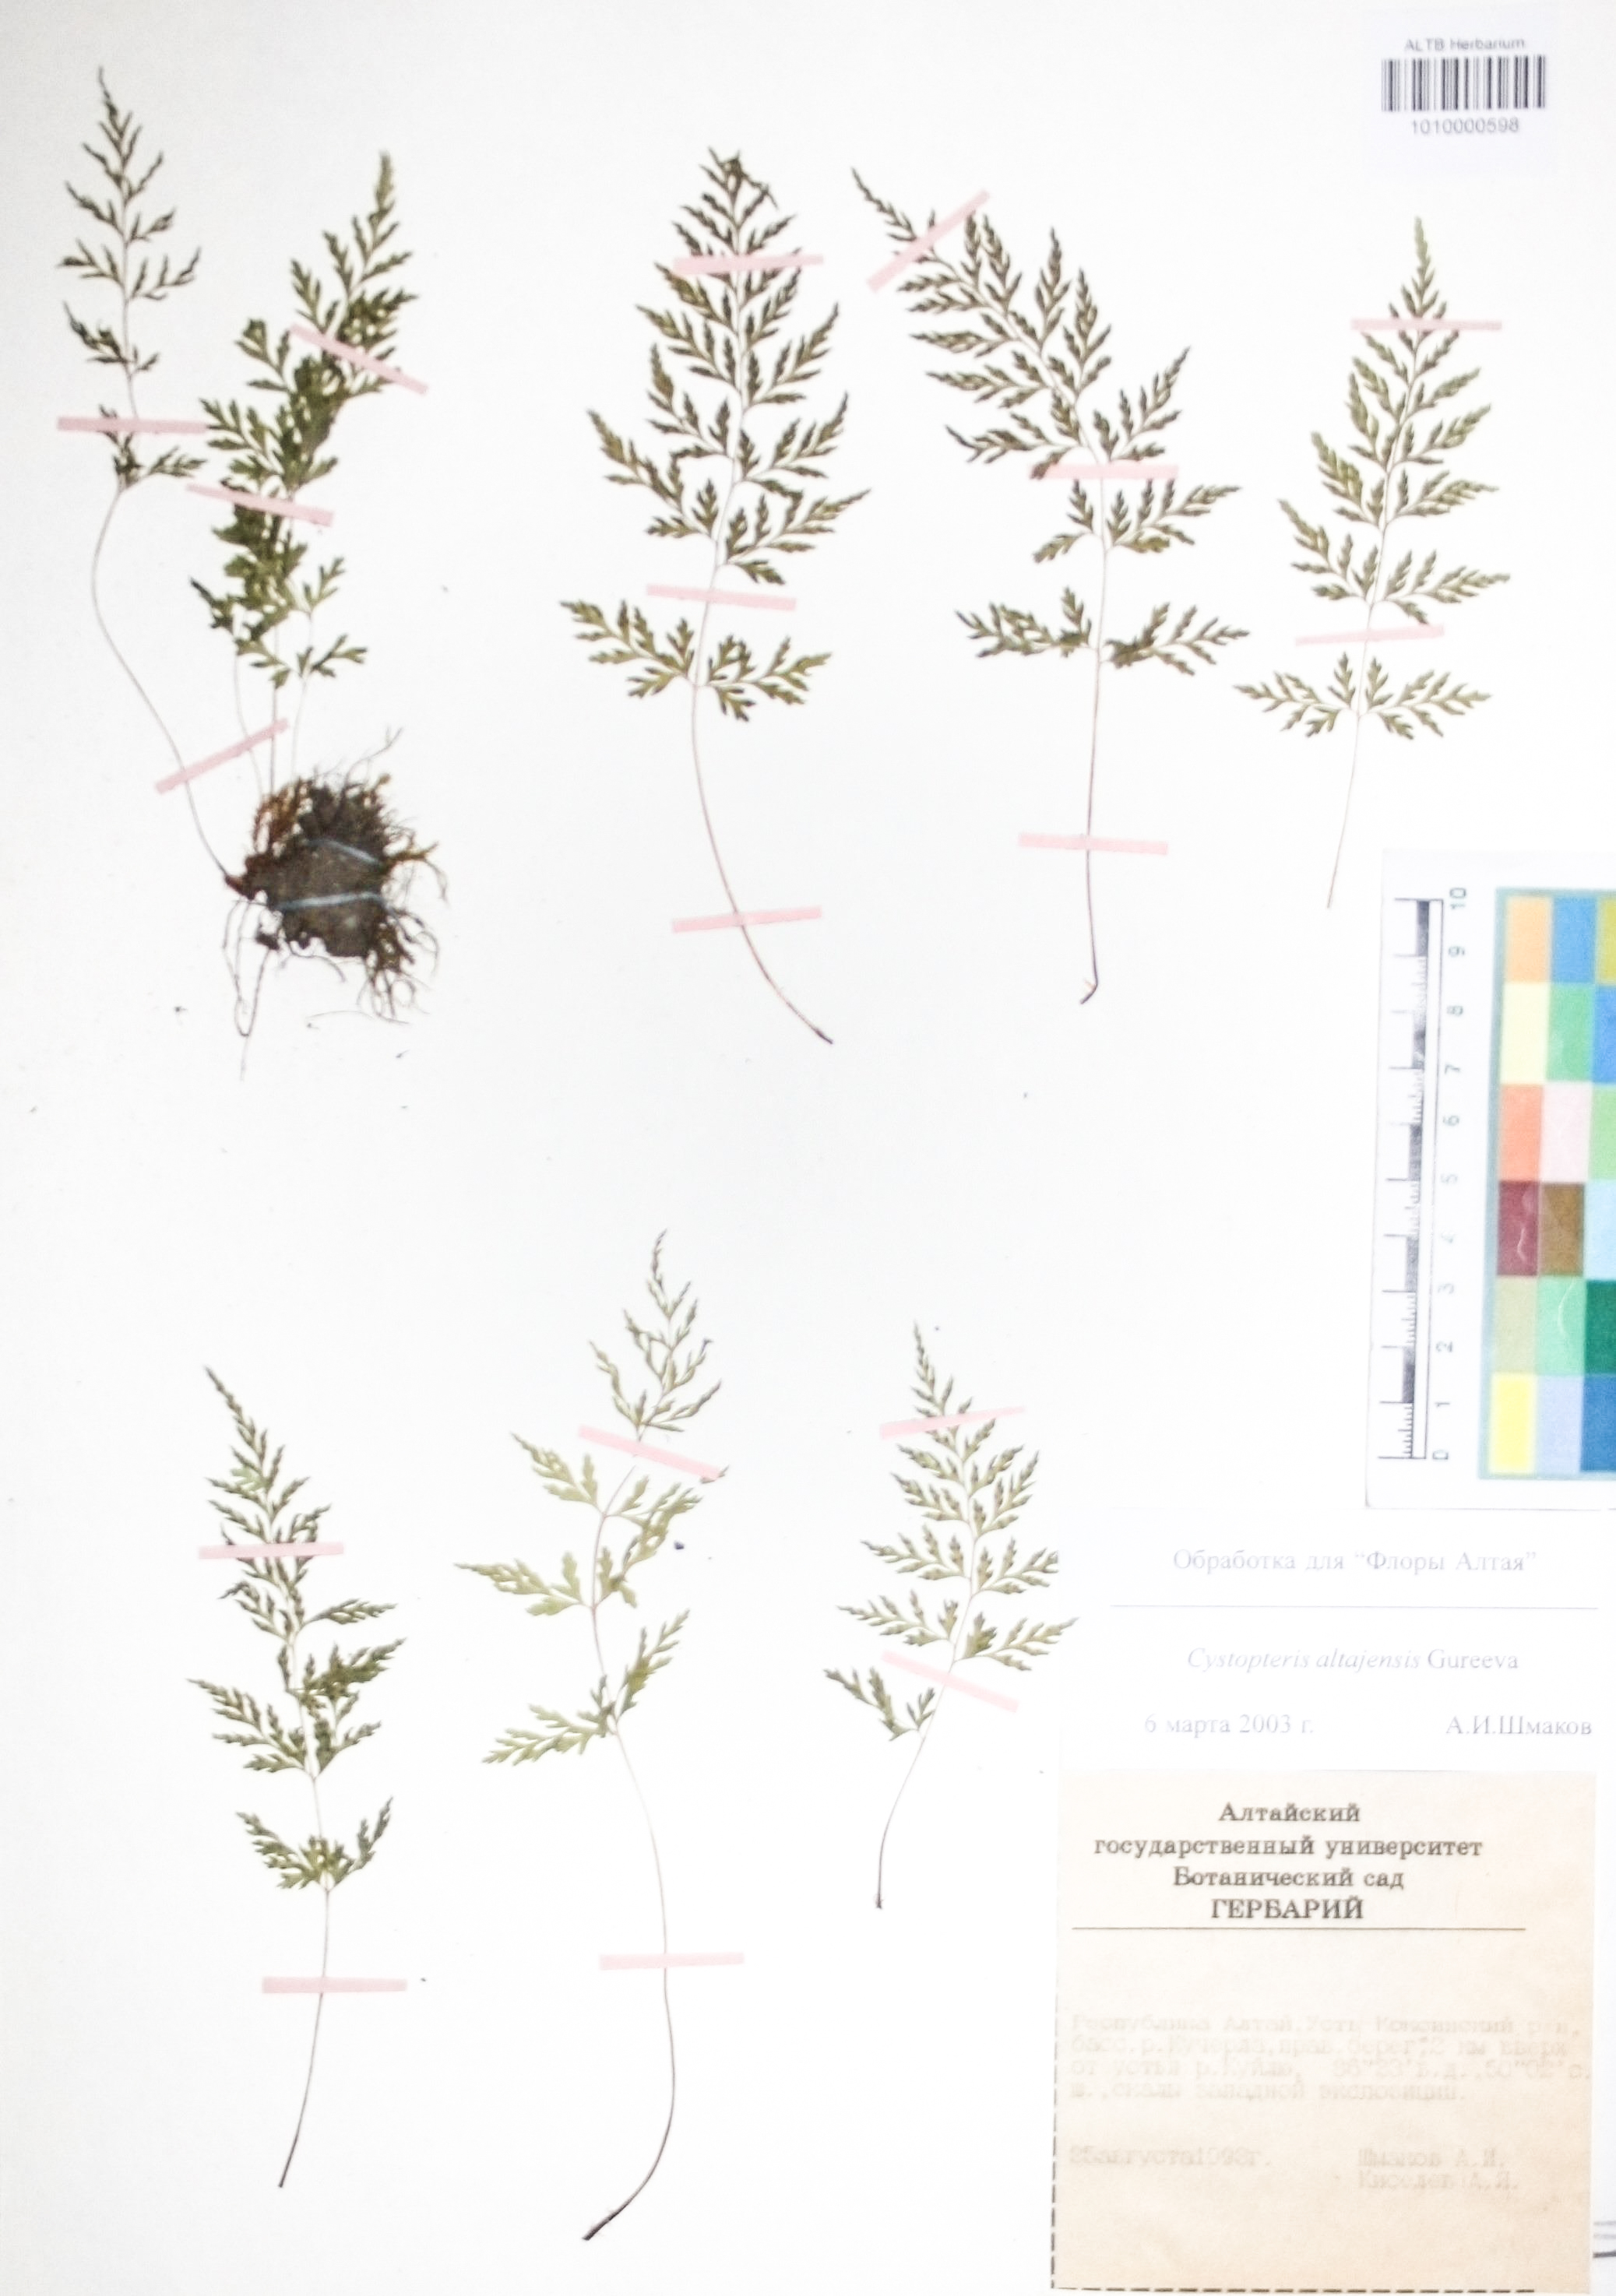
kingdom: Plantae
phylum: Tracheophyta
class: Polypodiopsida
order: Polypodiales
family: Cystopteridaceae
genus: Cystopteris
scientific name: Cystopteris diaphana
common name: Greenish bladder-fern
